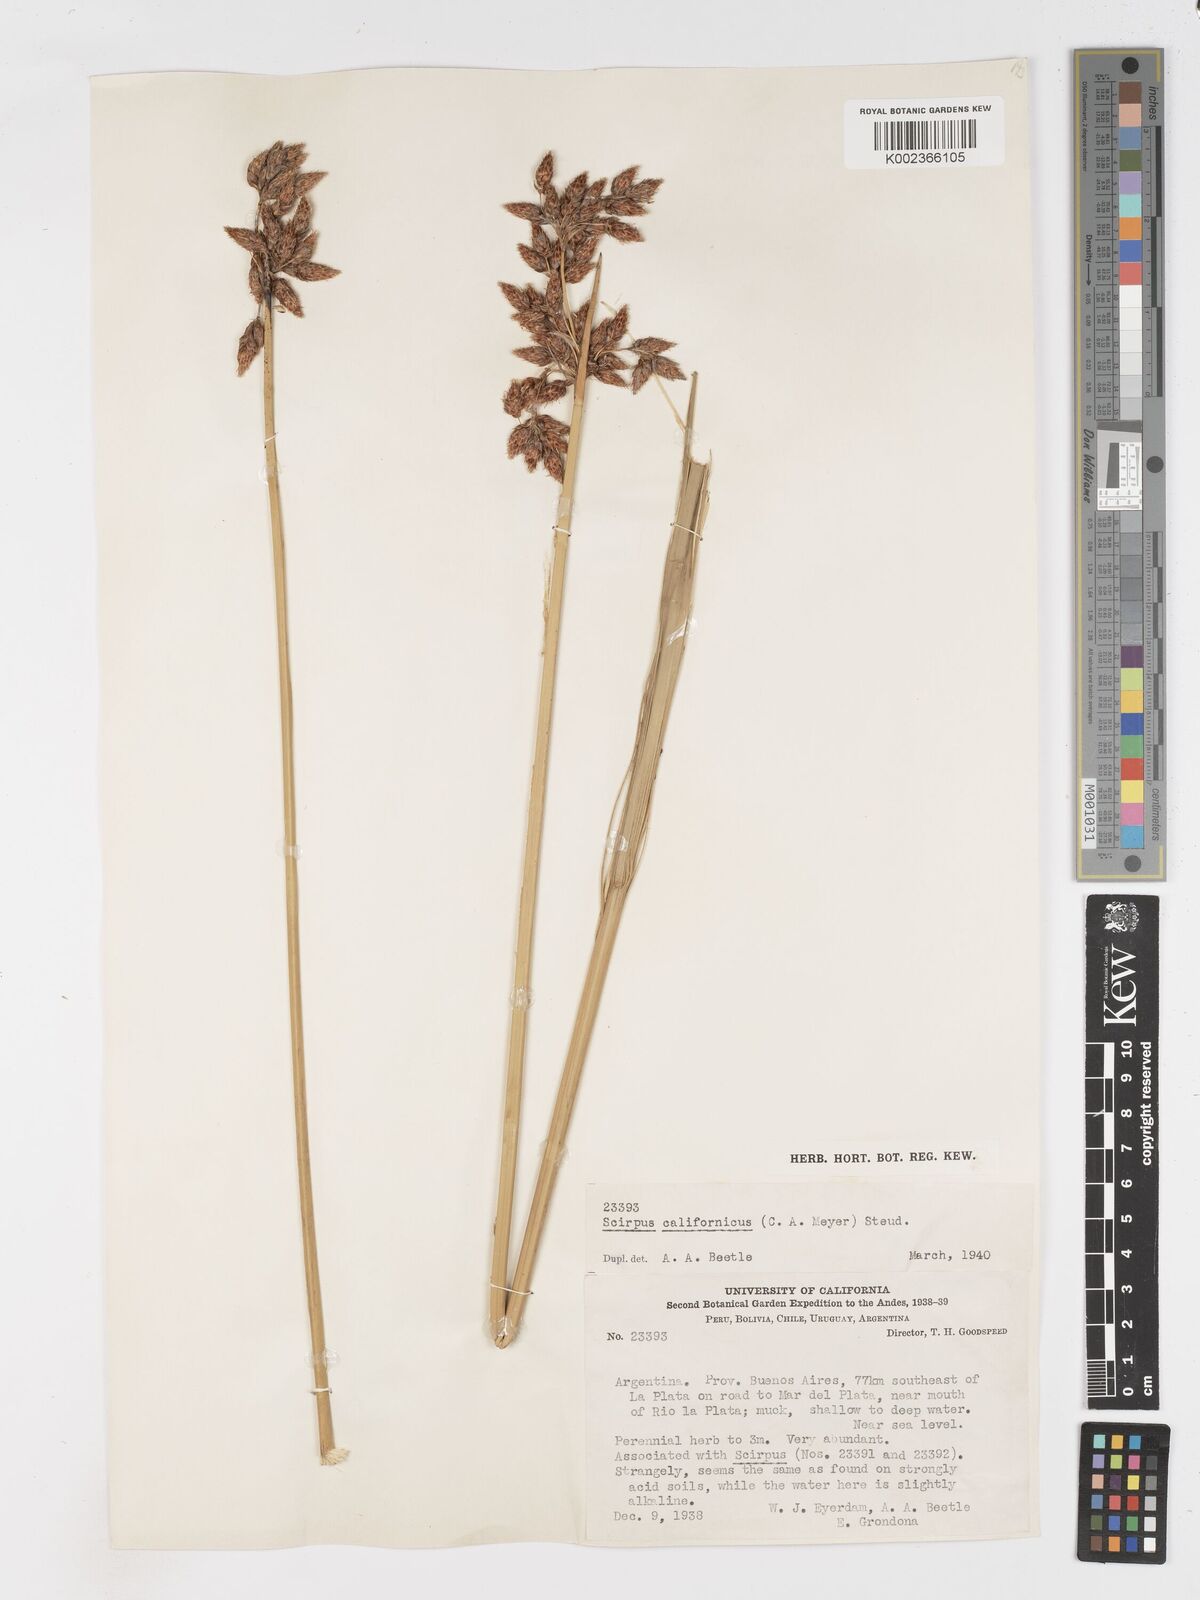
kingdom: Plantae
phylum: Tracheophyta
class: Liliopsida
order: Poales
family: Cyperaceae
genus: Schoenoplectus
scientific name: Schoenoplectus californicus
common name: California bulrush
